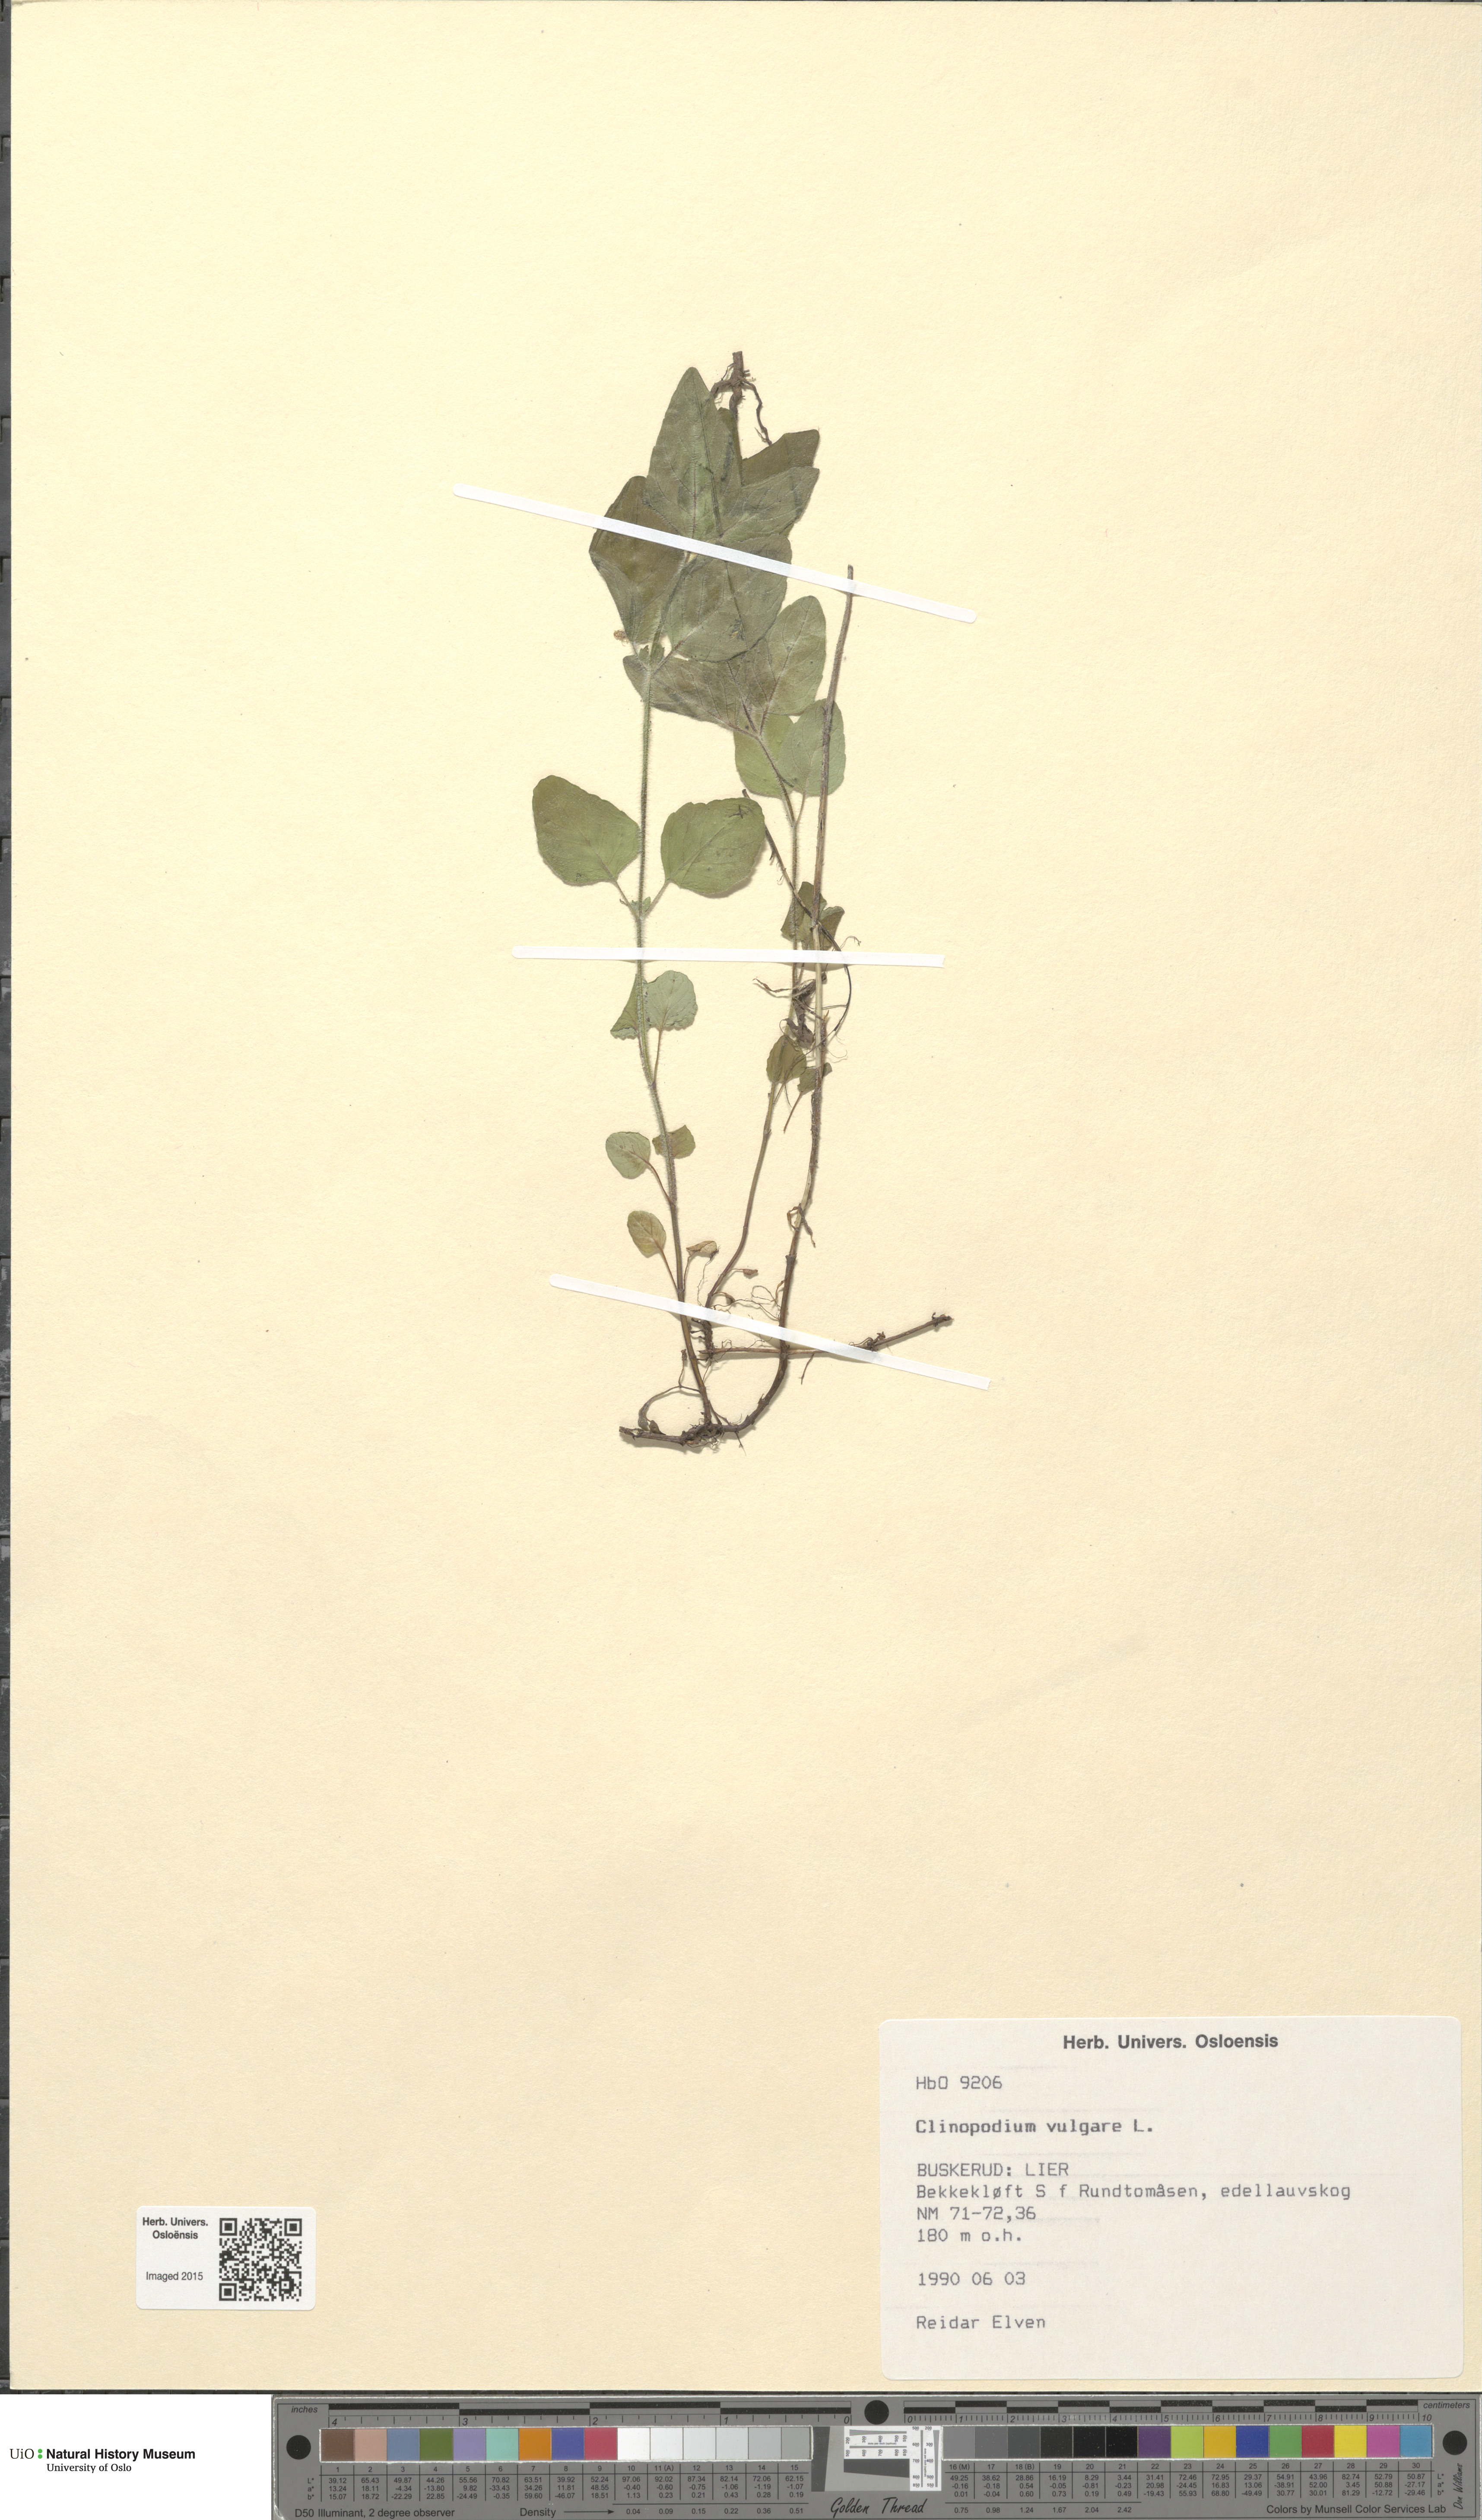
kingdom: Plantae
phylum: Tracheophyta
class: Magnoliopsida
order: Lamiales
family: Lamiaceae
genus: Clinopodium
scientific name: Clinopodium vulgare
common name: Wild basil
